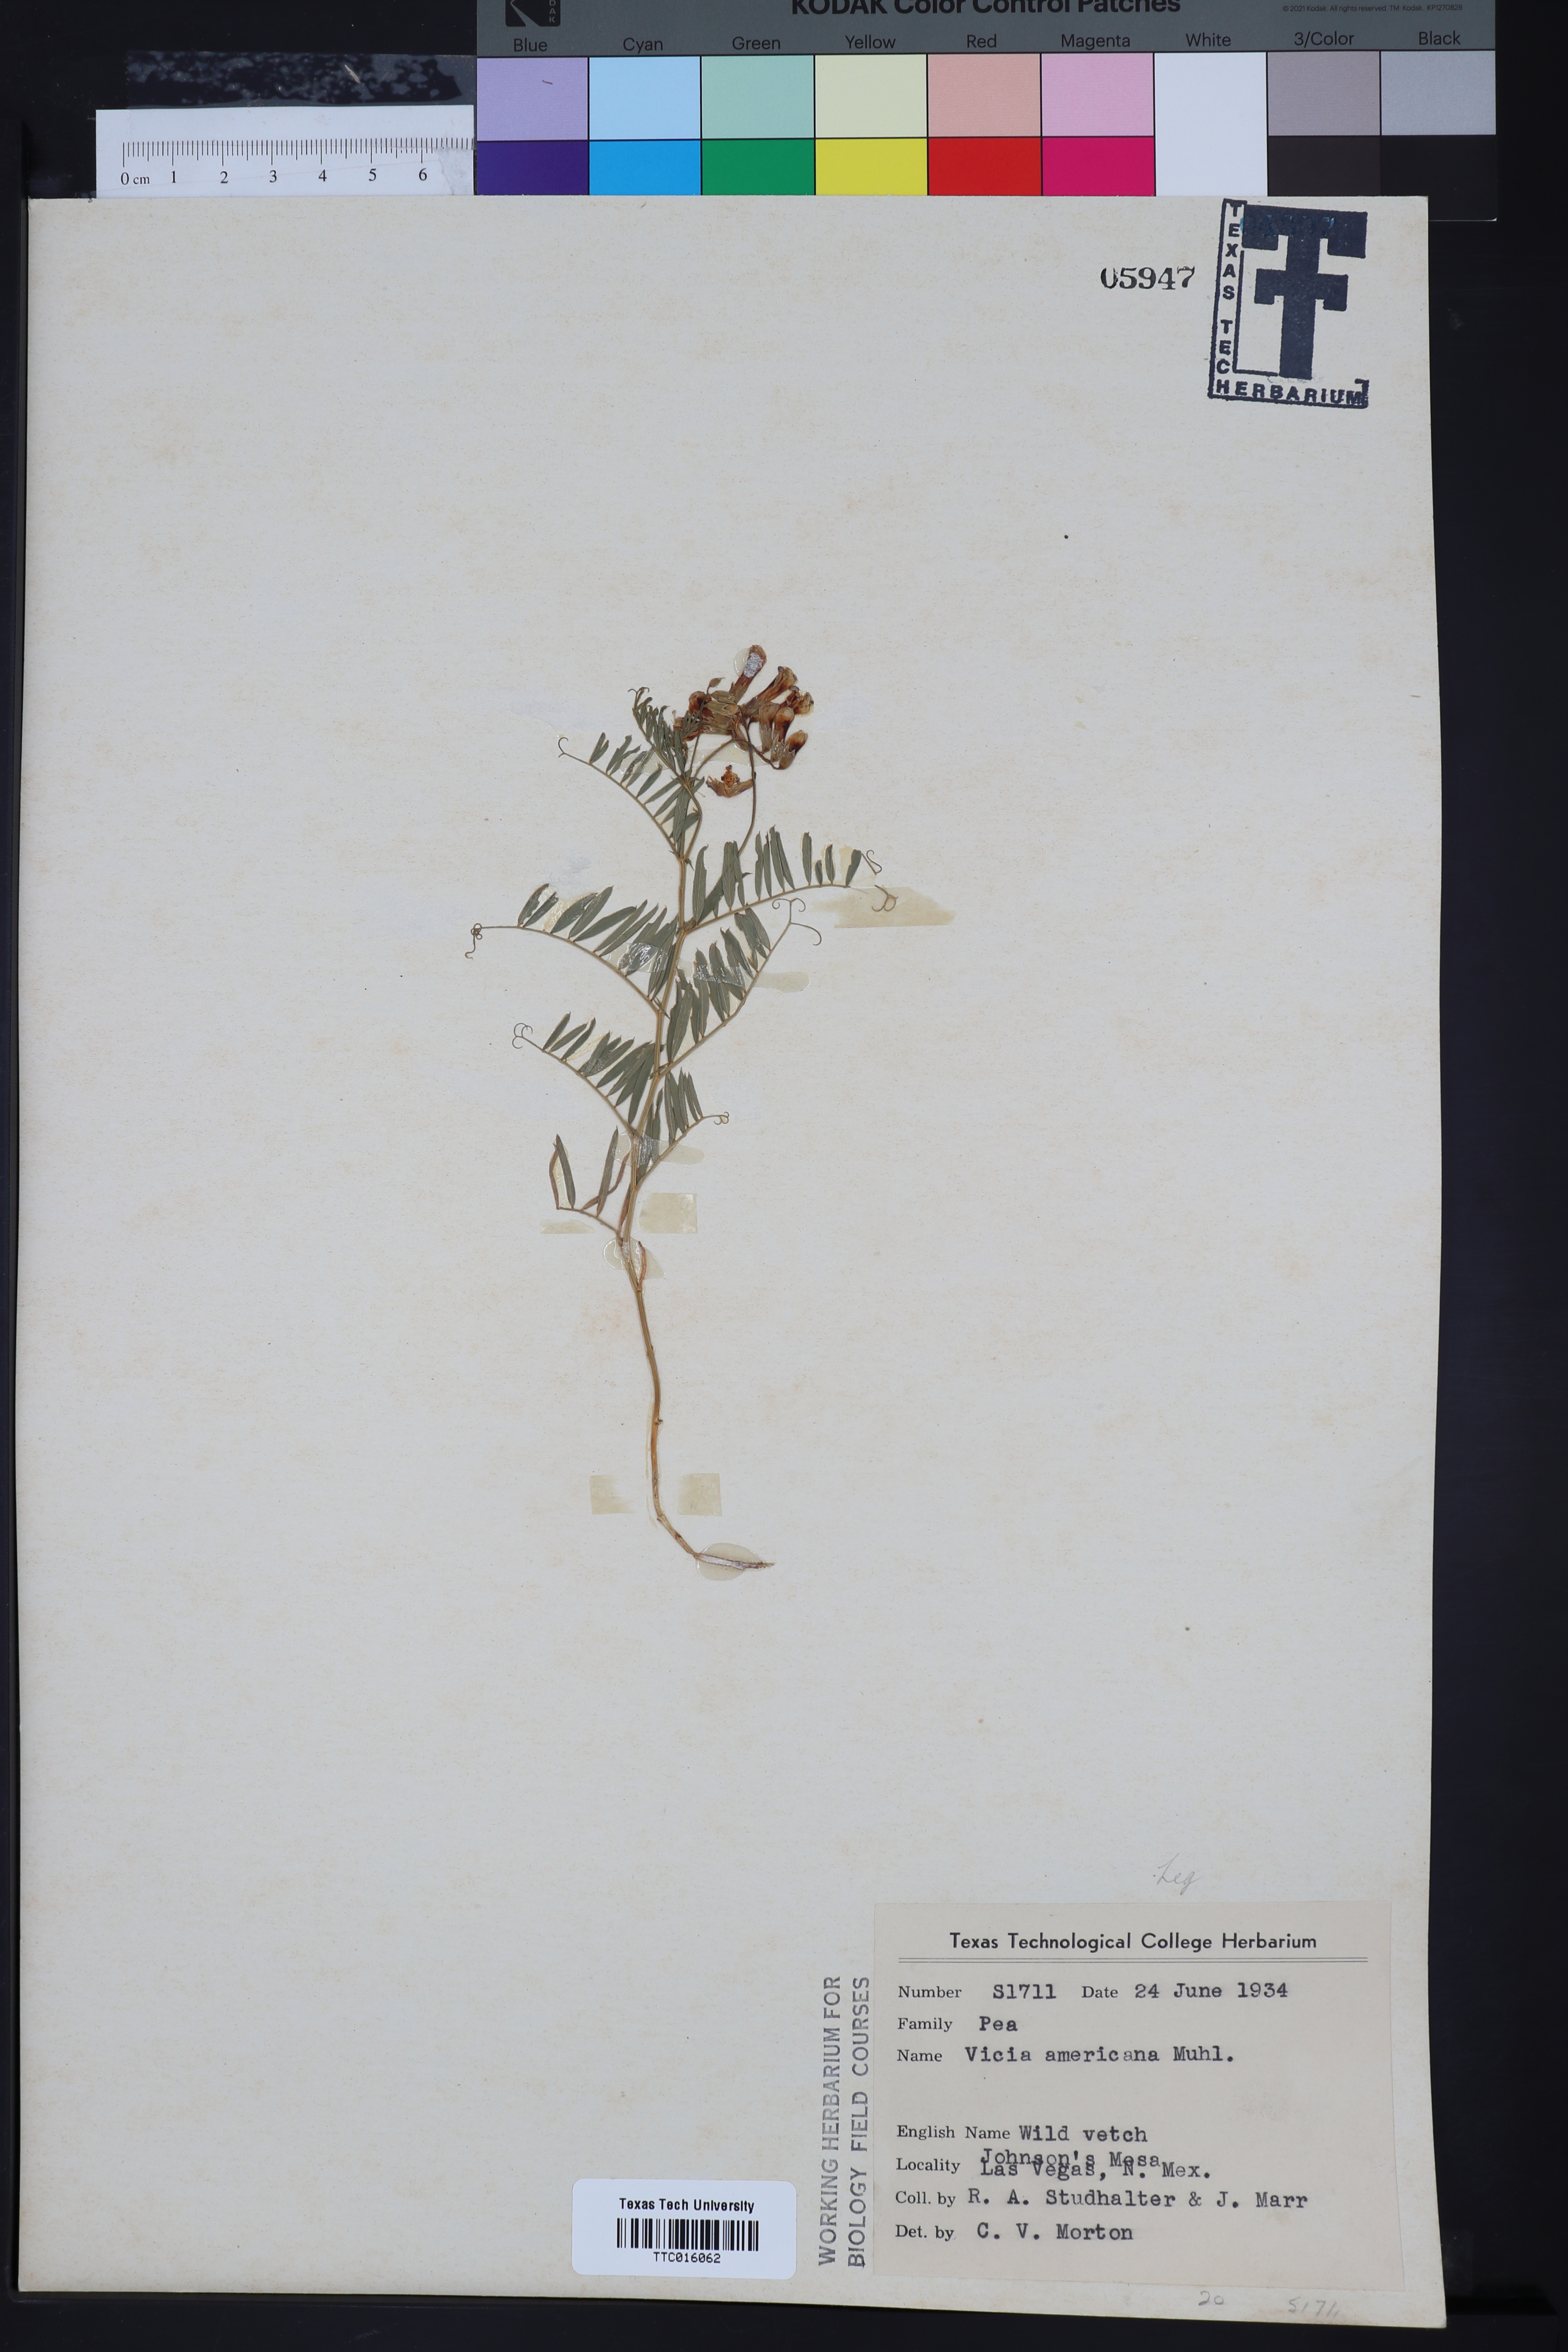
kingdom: Plantae
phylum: Tracheophyta
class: Magnoliopsida
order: Fabales
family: Fabaceae
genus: Vicia
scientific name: Vicia americana
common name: American vetch
